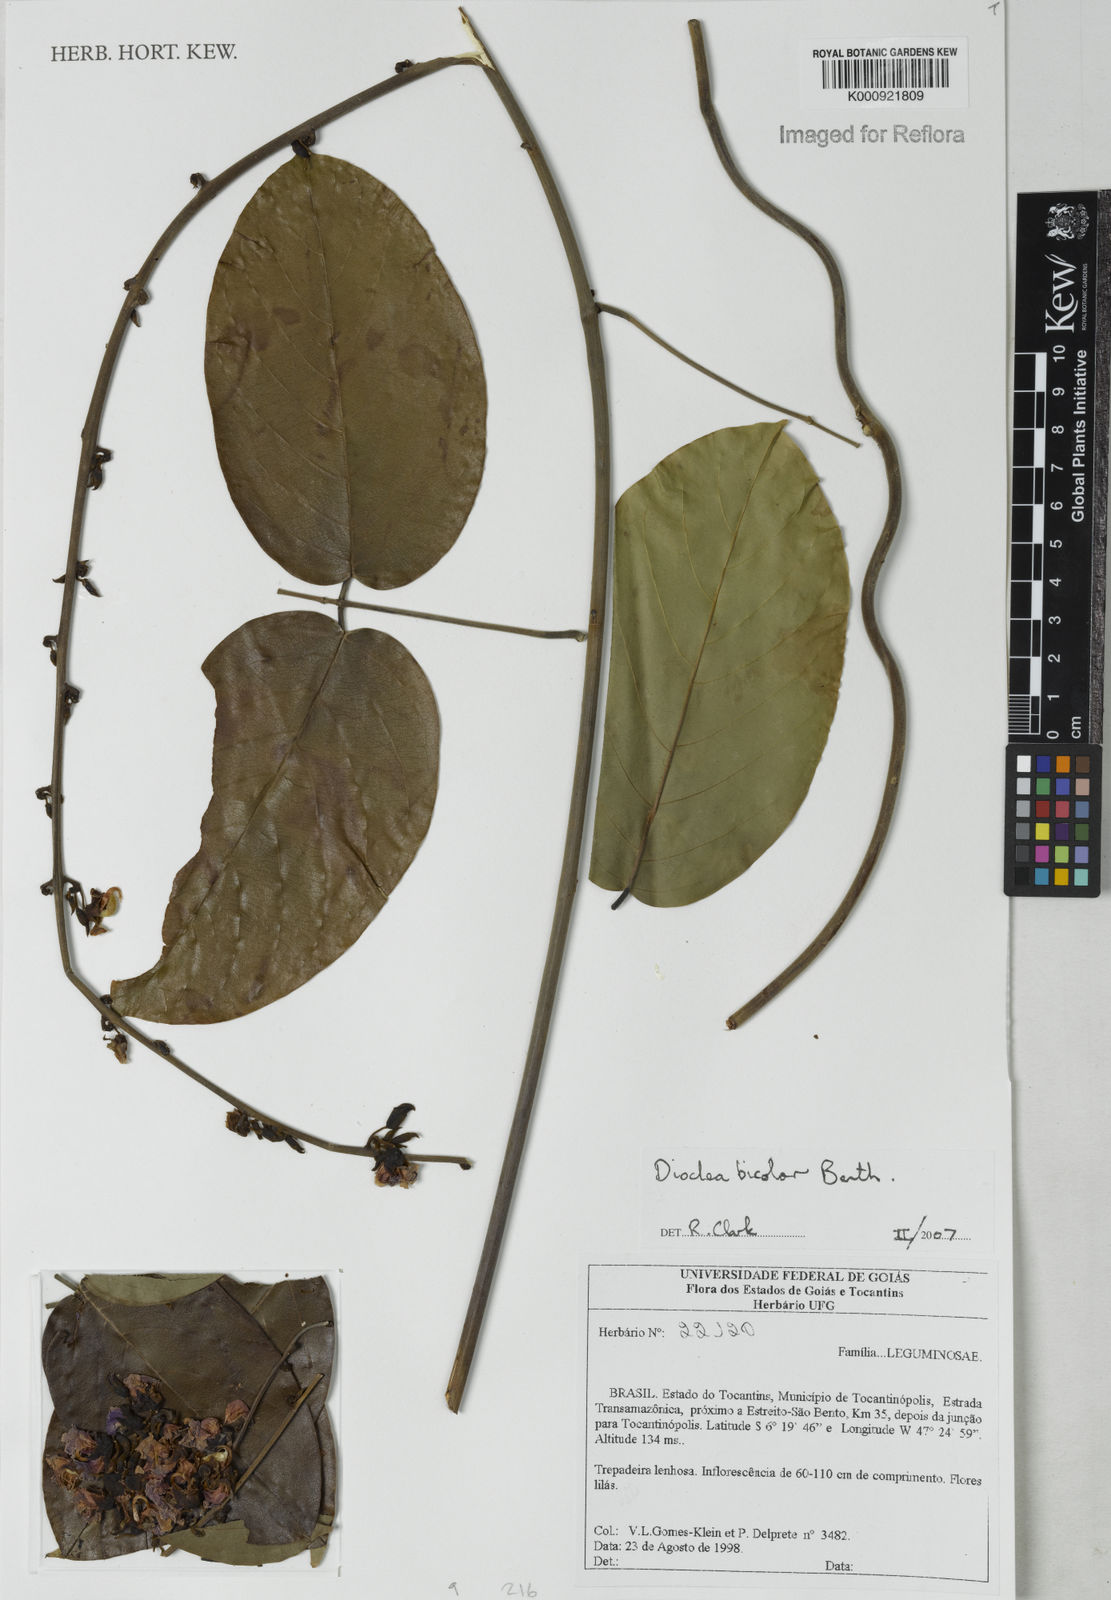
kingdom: Plantae
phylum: Tracheophyta
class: Magnoliopsida
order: Fabales
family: Fabaceae
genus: Macropsychanthus
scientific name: Macropsychanthus bicolor
